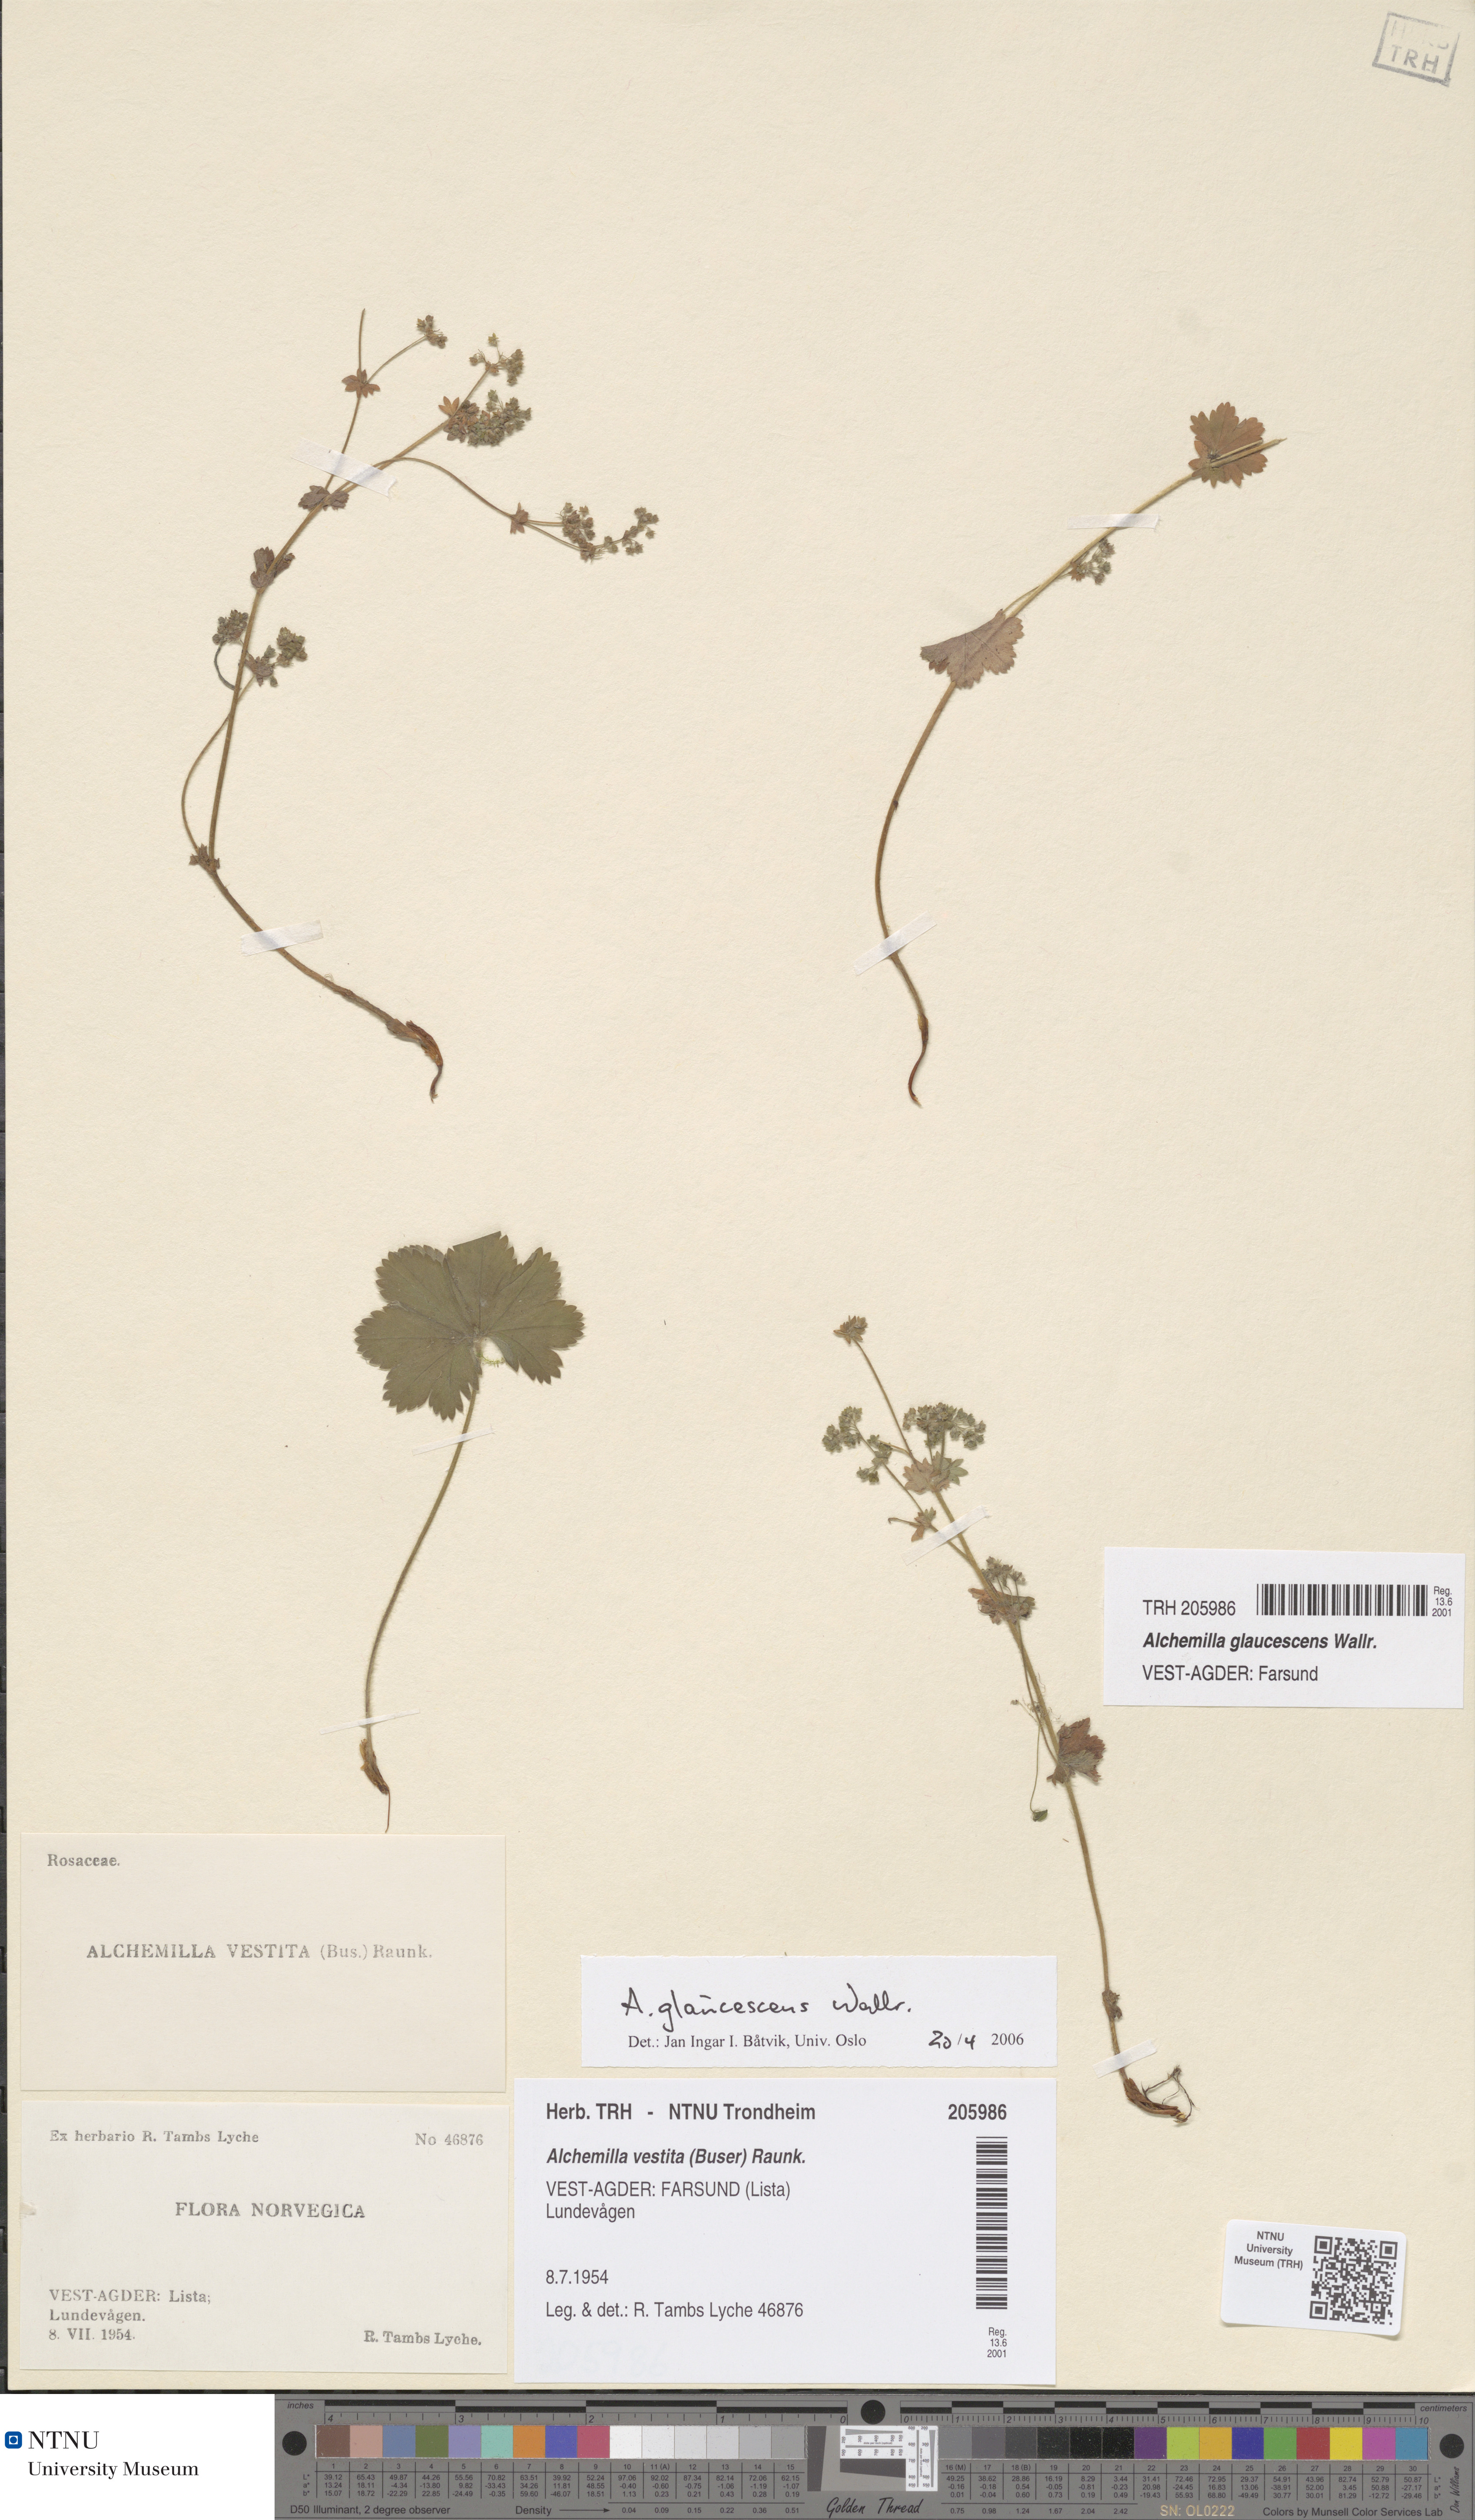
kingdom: Plantae
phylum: Tracheophyta
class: Magnoliopsida
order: Rosales
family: Rosaceae
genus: Alchemilla
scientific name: Alchemilla glaucescens
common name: Silky lady's mantle
